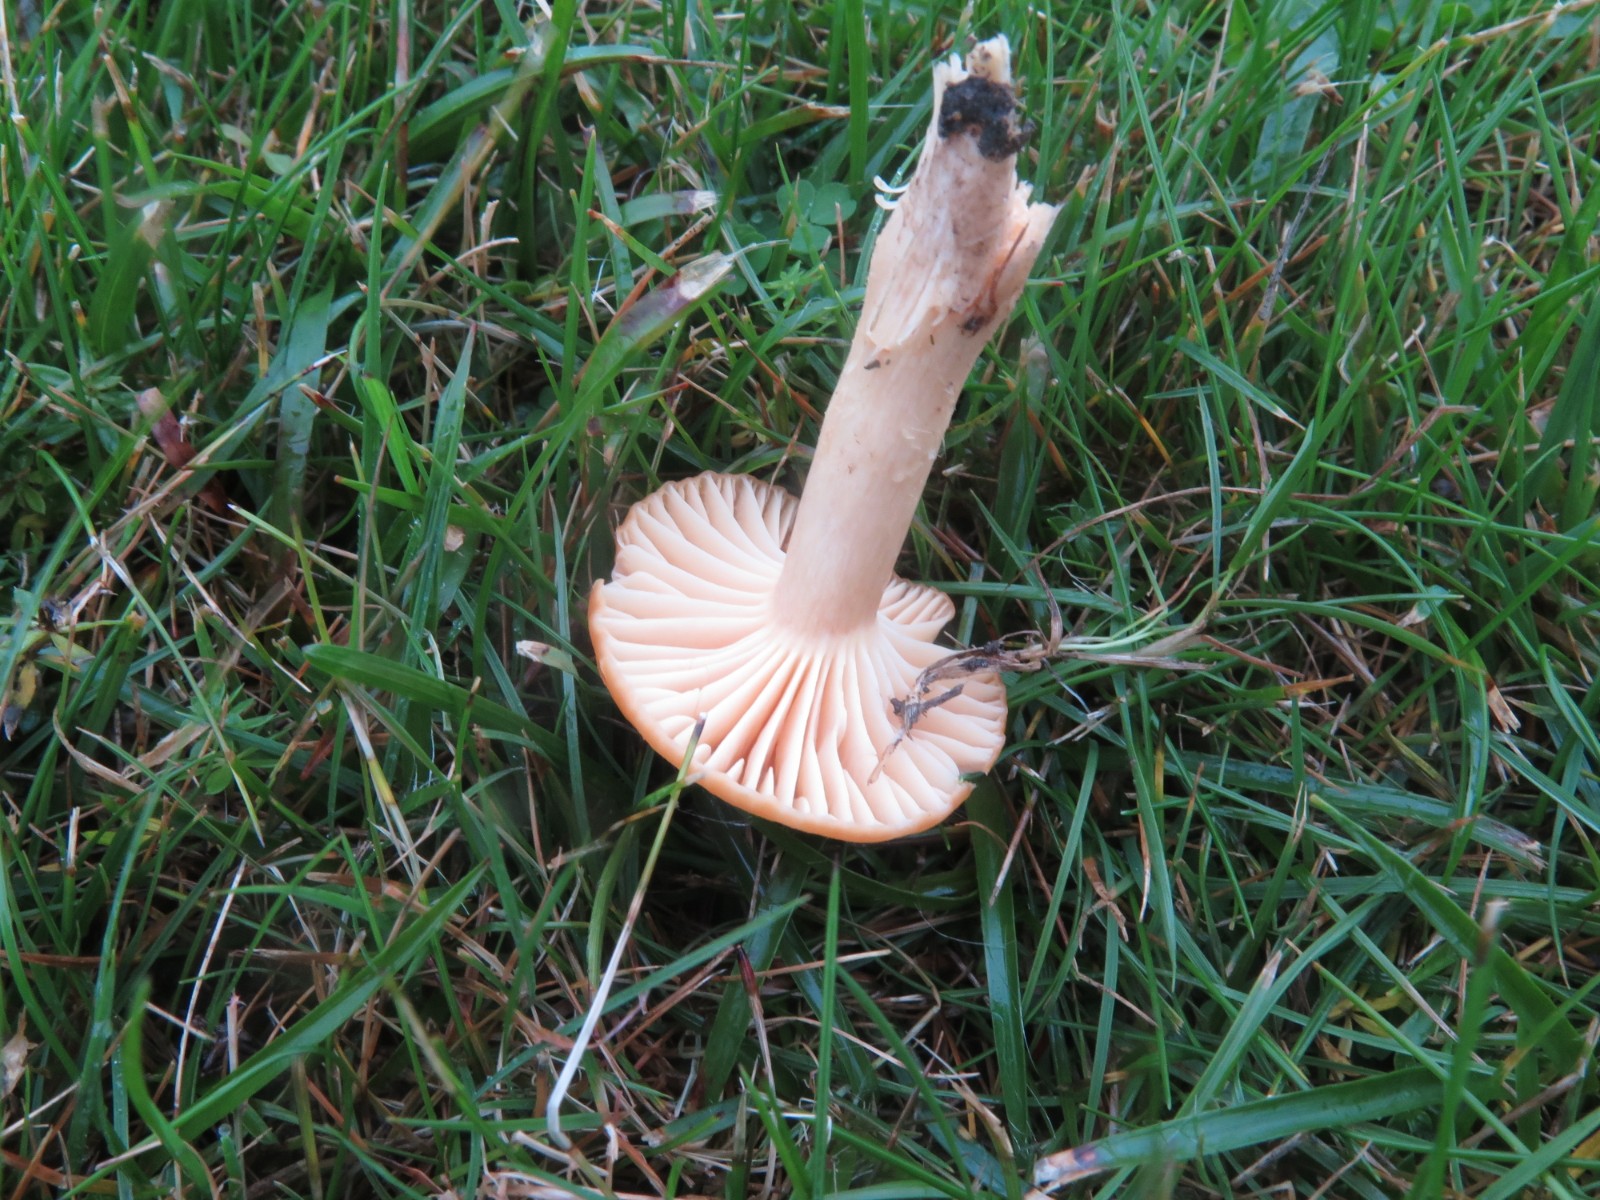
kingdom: Fungi
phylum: Basidiomycota
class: Agaricomycetes
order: Agaricales
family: Hygrophoraceae
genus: Cuphophyllus
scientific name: Cuphophyllus pratensis
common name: eng-vokshat
